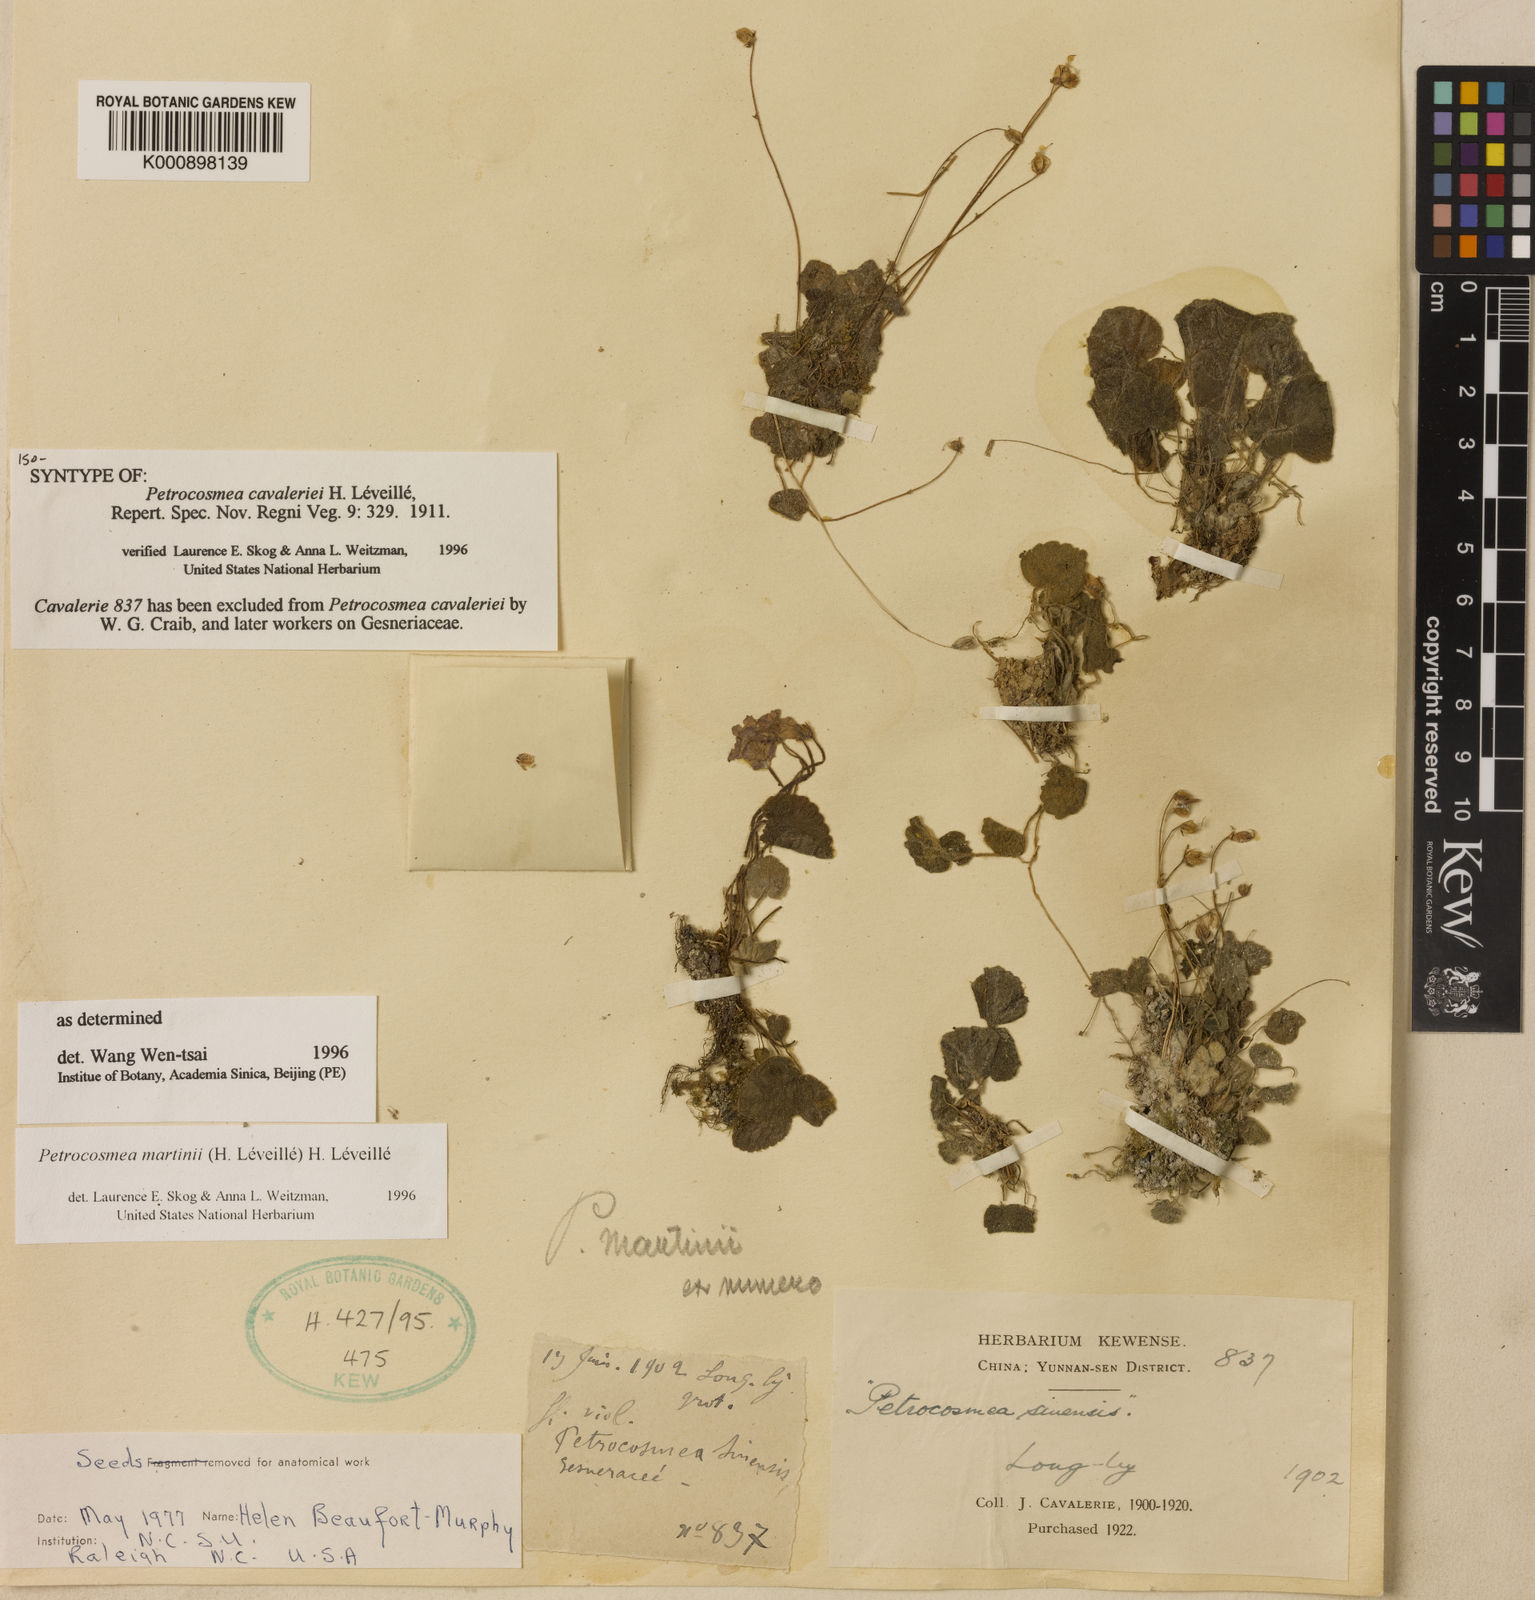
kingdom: Plantae
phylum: Tracheophyta
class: Magnoliopsida
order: Lamiales
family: Gesneriaceae
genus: Petrocosmea
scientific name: Petrocosmea
